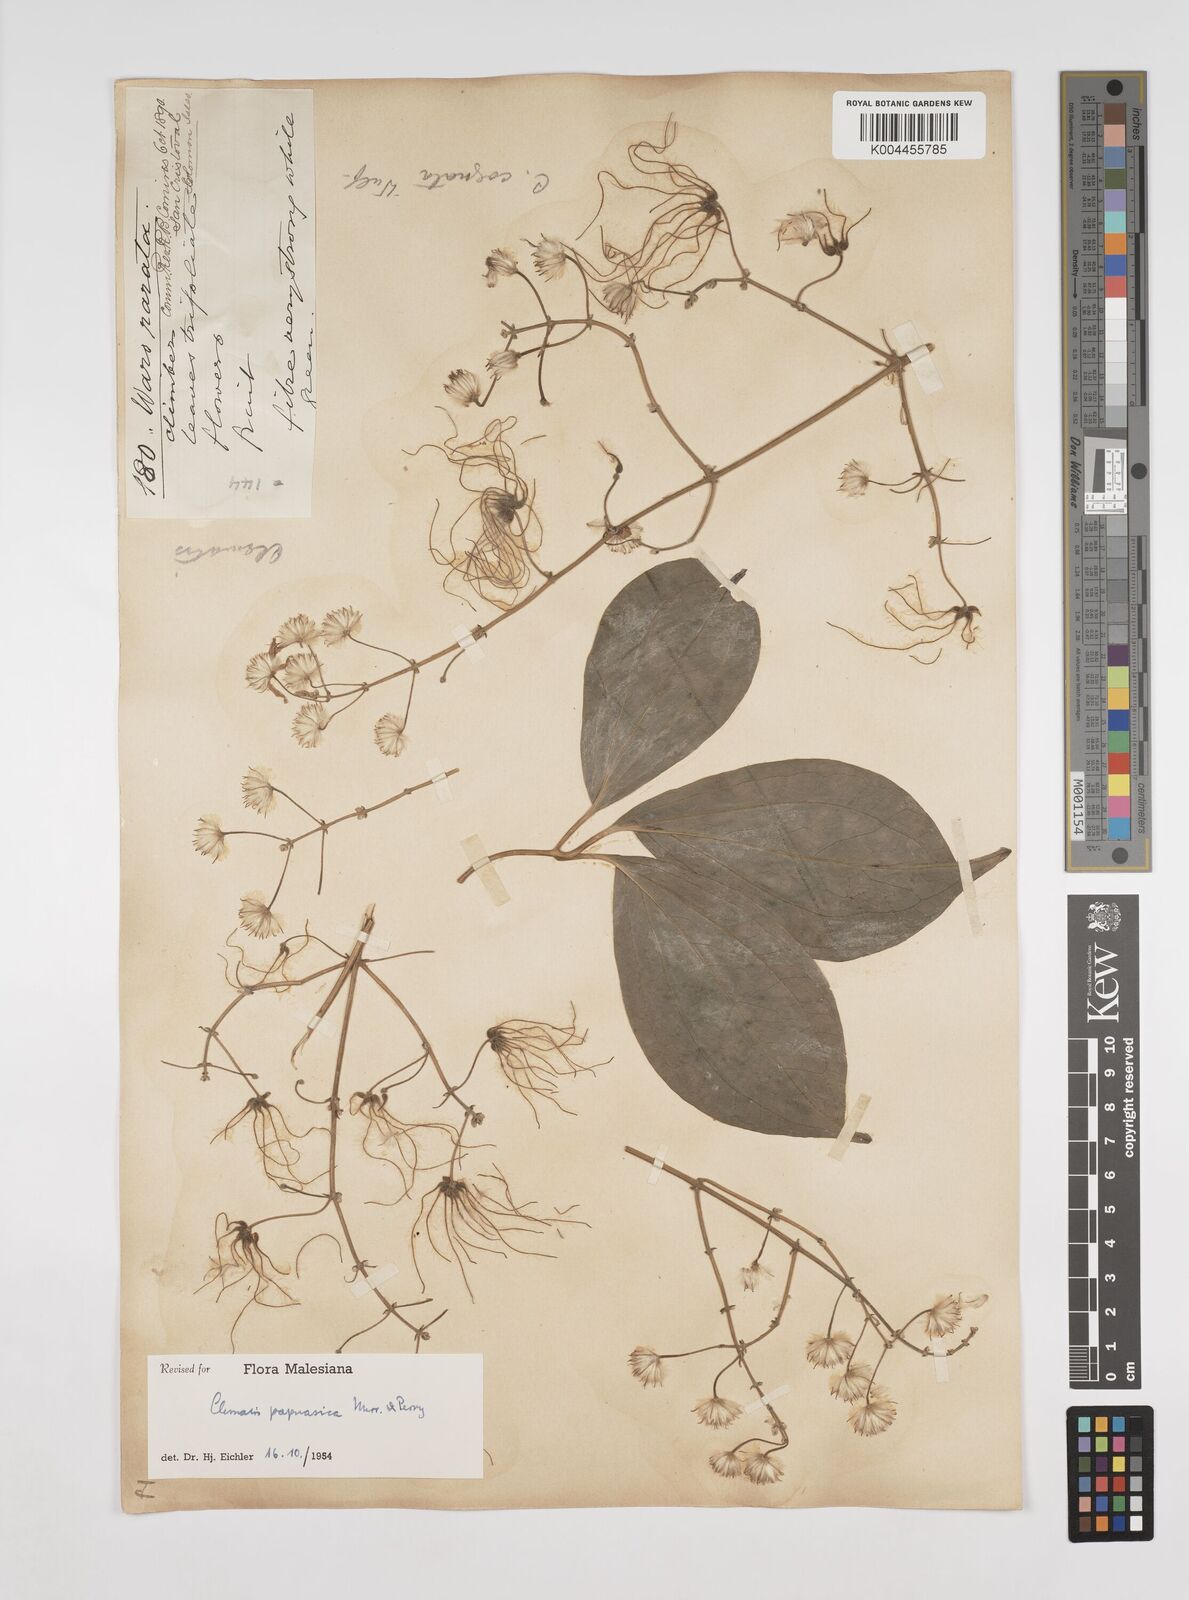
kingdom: Plantae
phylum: Tracheophyta
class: Magnoliopsida
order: Ranunculales
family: Ranunculaceae
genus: Clematis
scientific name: Clematis papuasica
